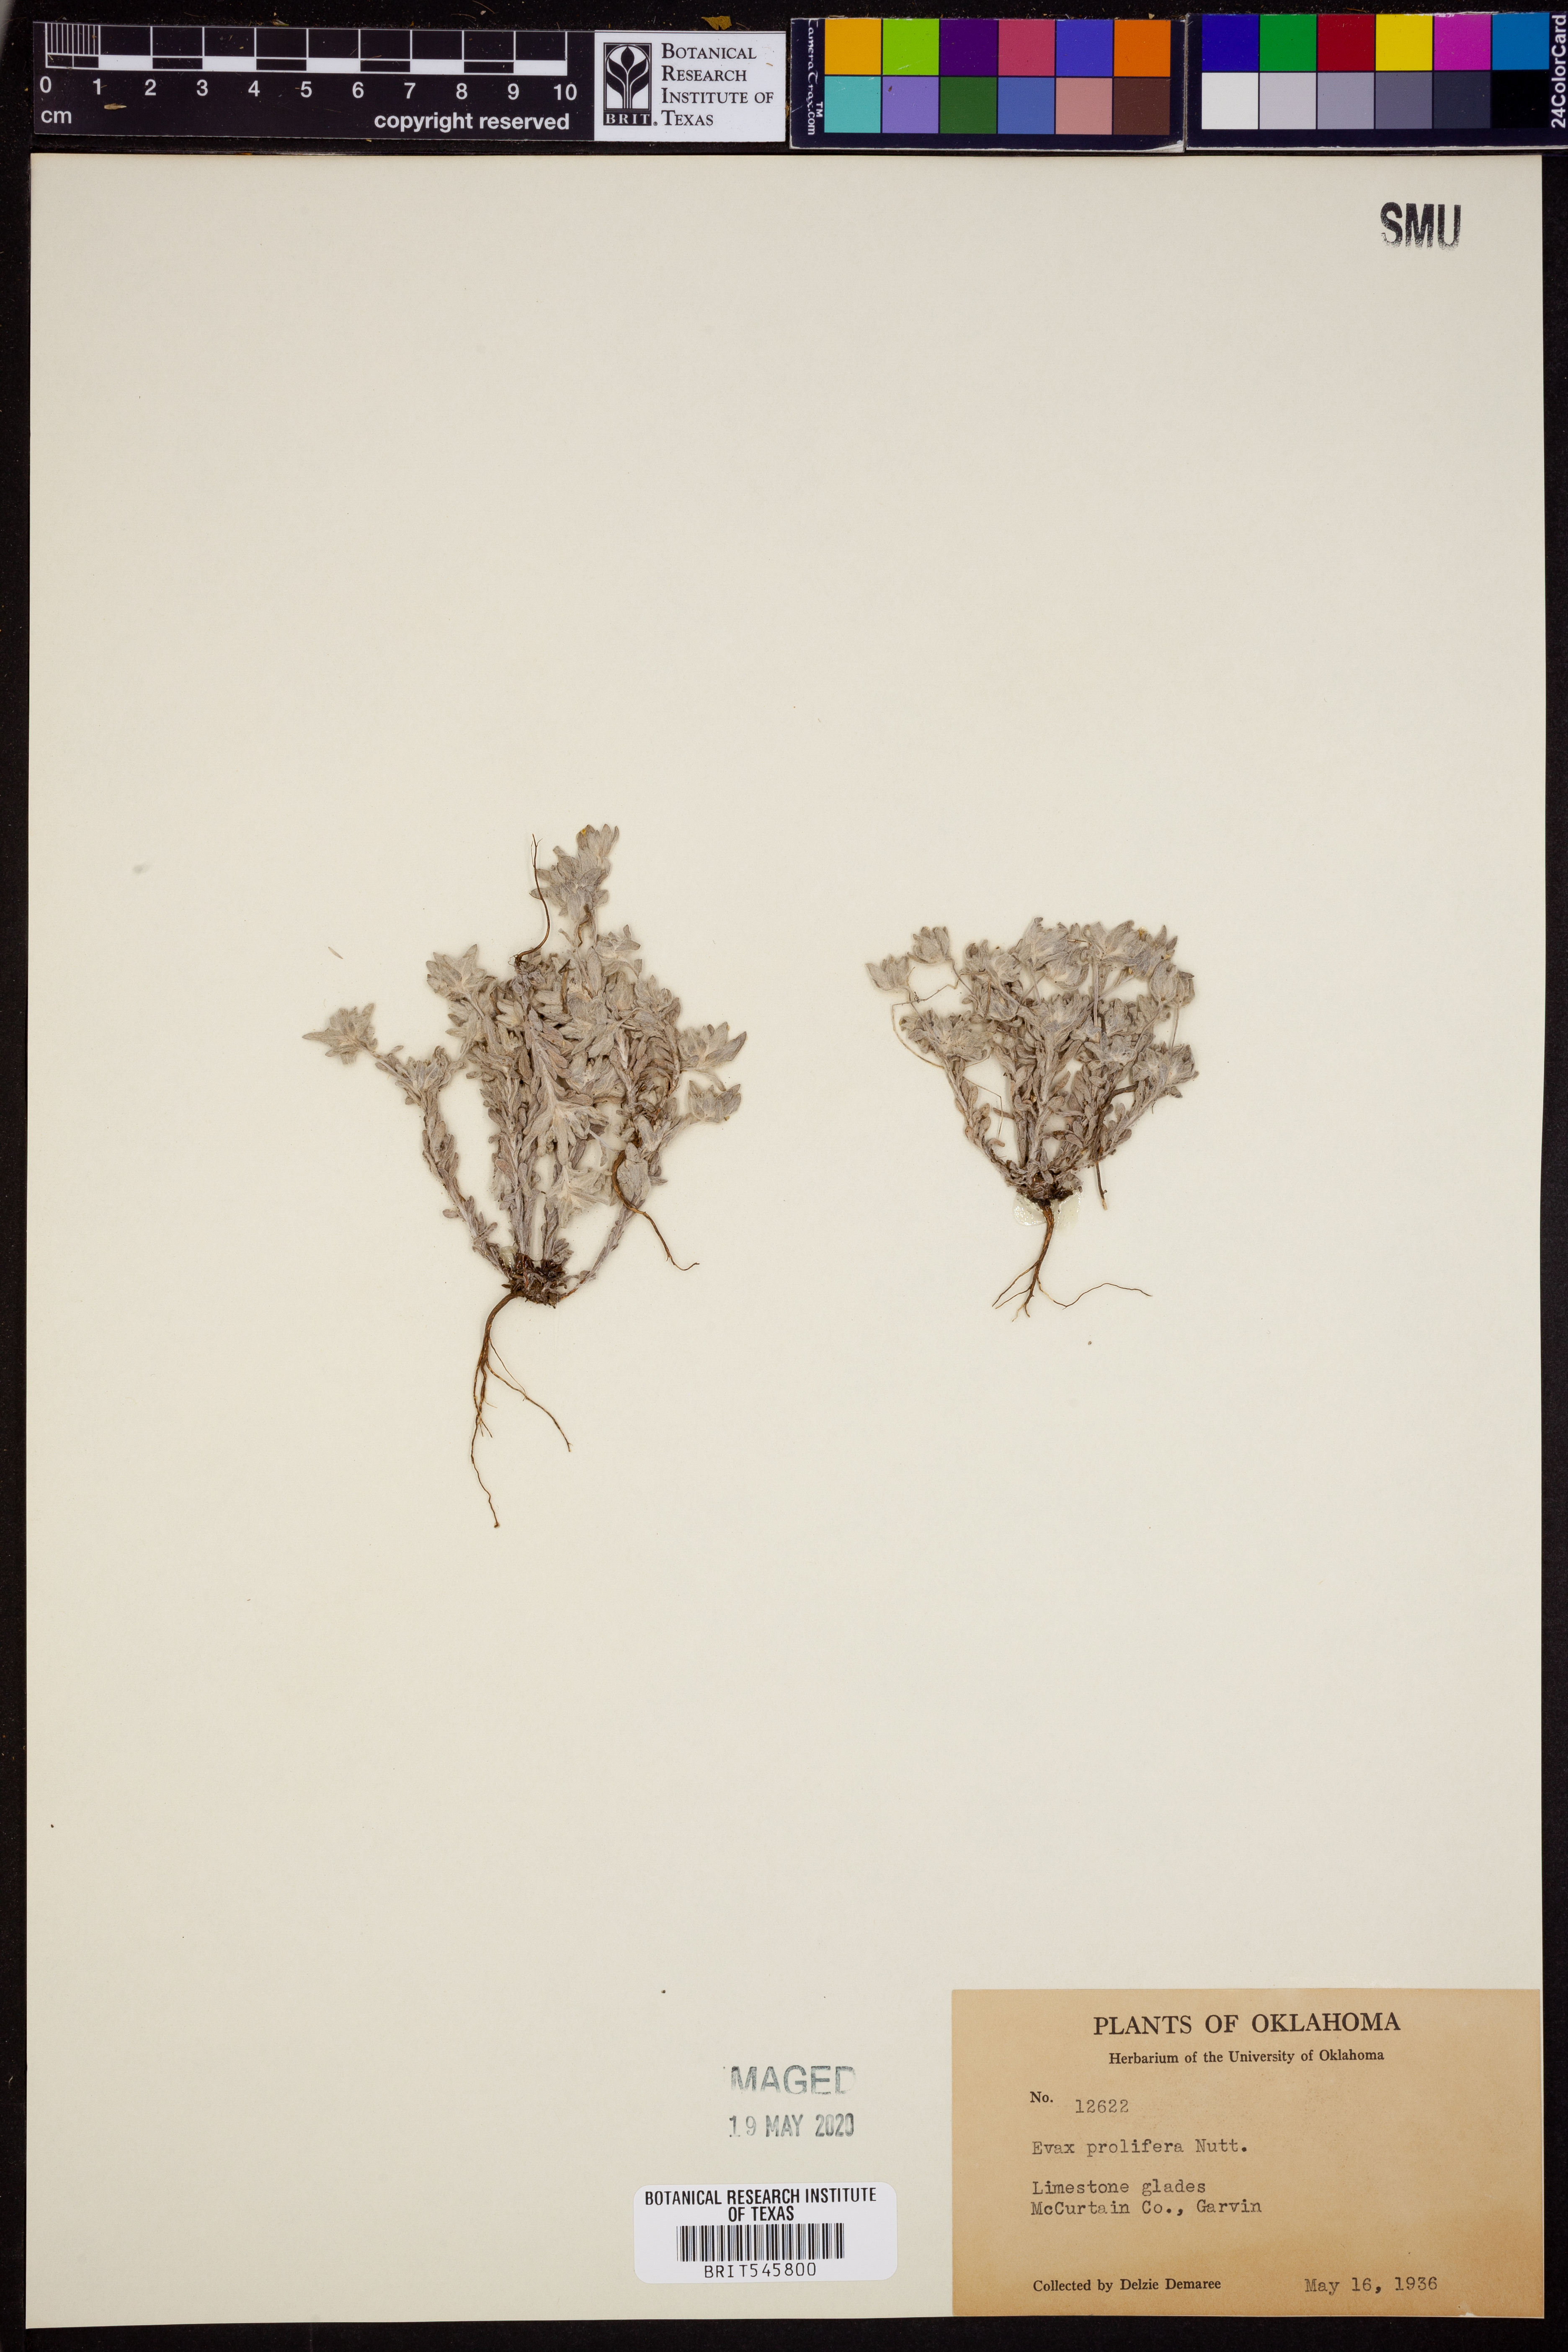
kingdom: Plantae
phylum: Tracheophyta
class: Magnoliopsida
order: Asterales
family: Asteraceae
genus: Diaperia
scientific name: Diaperia prolifera
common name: Big-head rabbit-tobacco
